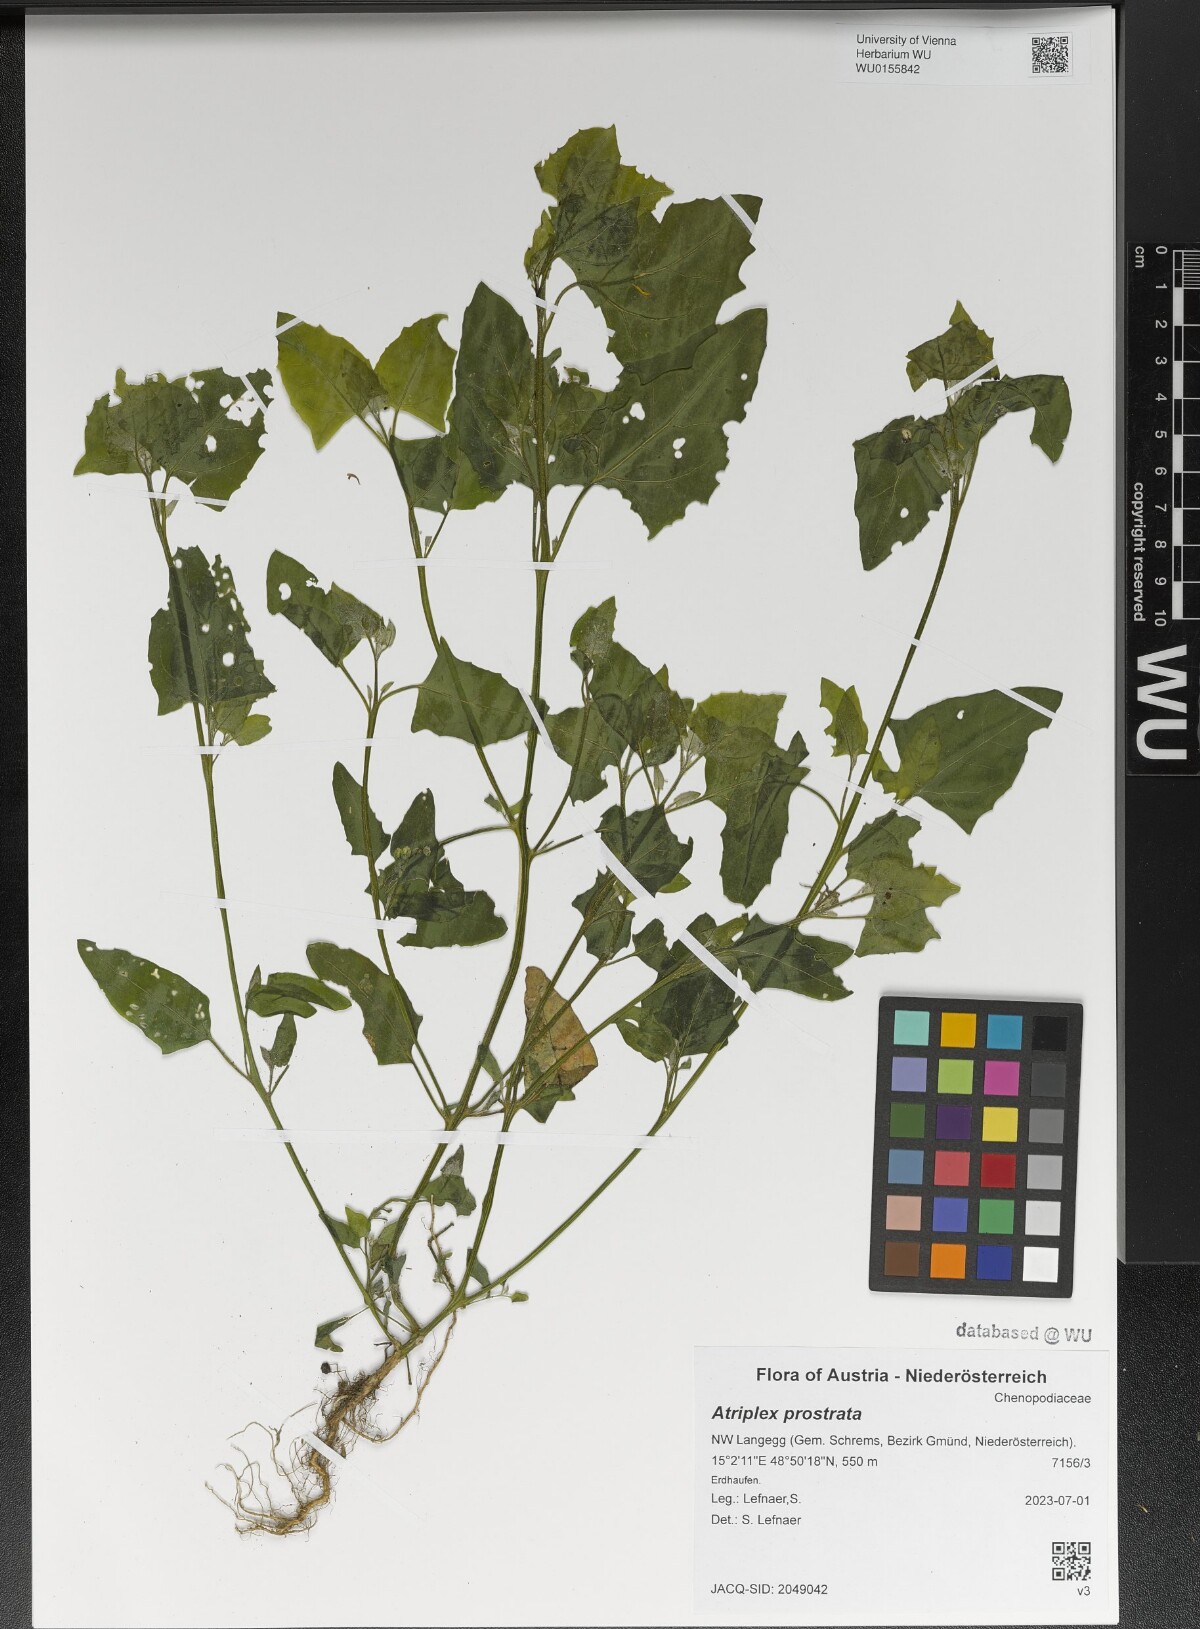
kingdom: Plantae
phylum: Tracheophyta
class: Magnoliopsida
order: Caryophyllales
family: Amaranthaceae
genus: Atriplex
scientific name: Atriplex prostrata
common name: Spear-leaved orache
